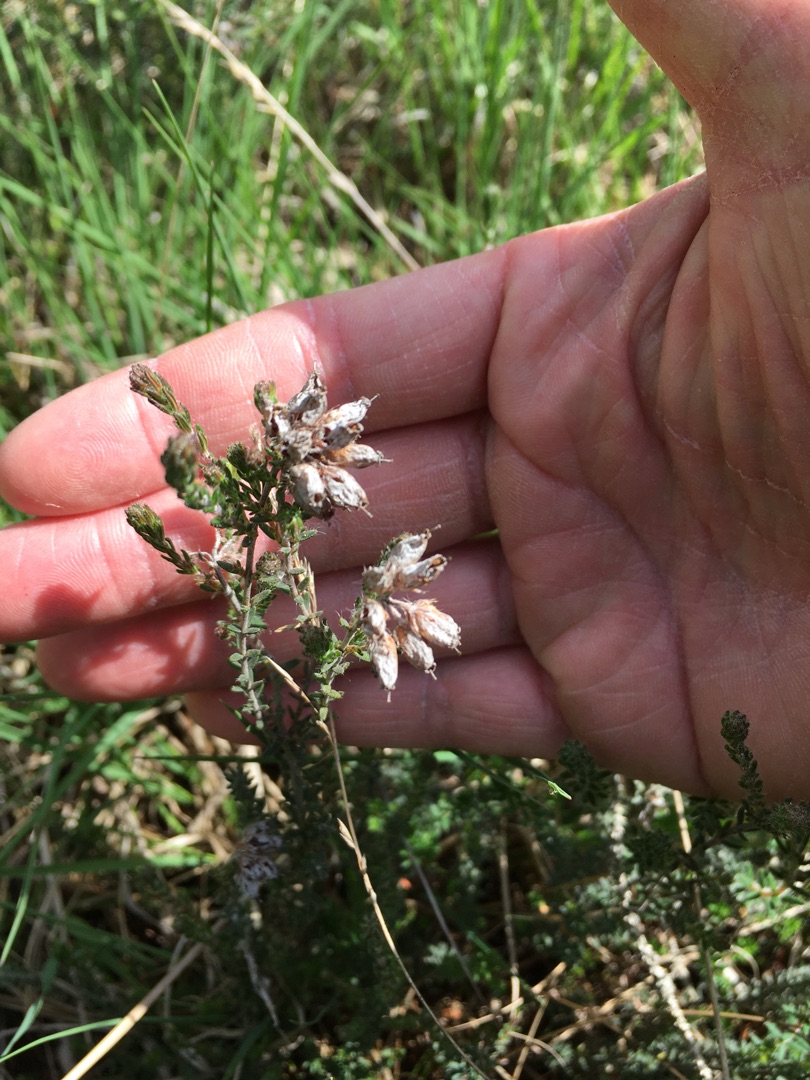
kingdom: Plantae
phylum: Tracheophyta
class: Magnoliopsida
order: Ericales
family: Ericaceae
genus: Erica
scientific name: Erica tetralix
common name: Klokkelyng
